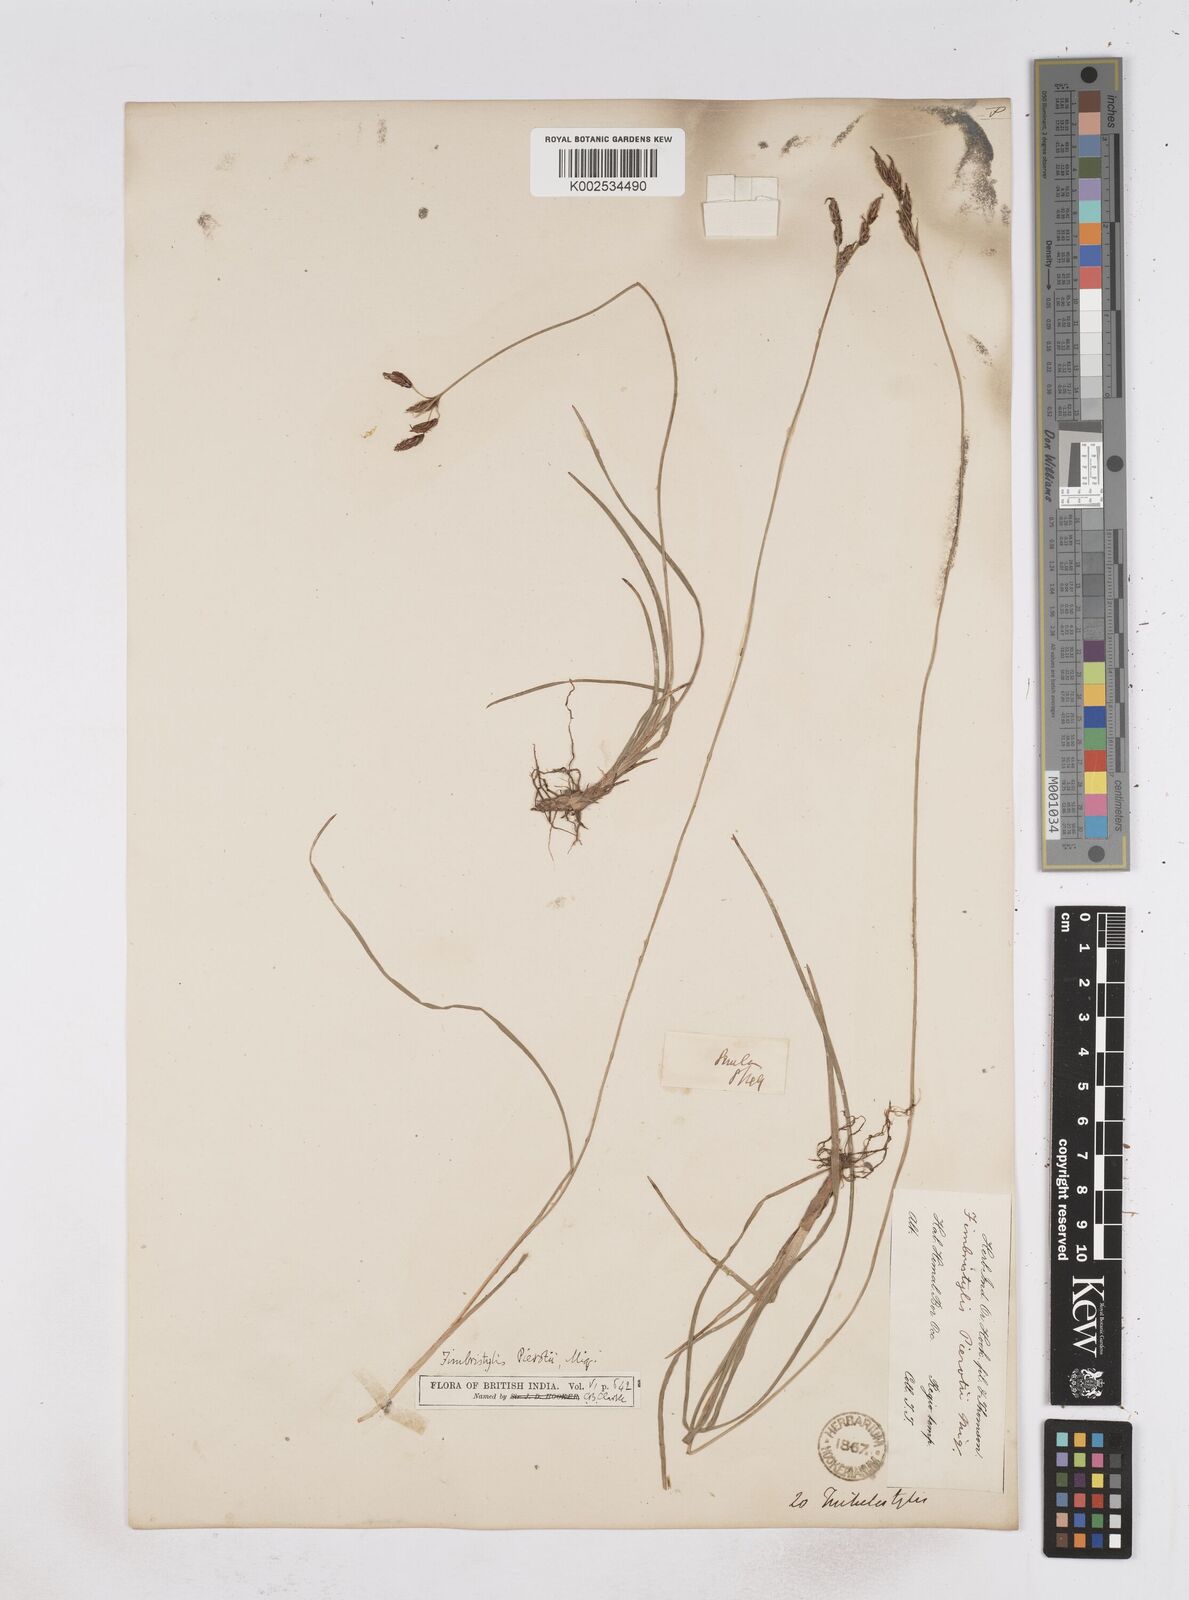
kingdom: Plantae
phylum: Tracheophyta
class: Liliopsida
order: Poales
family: Cyperaceae
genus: Fimbristylis
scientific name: Fimbristylis pierotii
